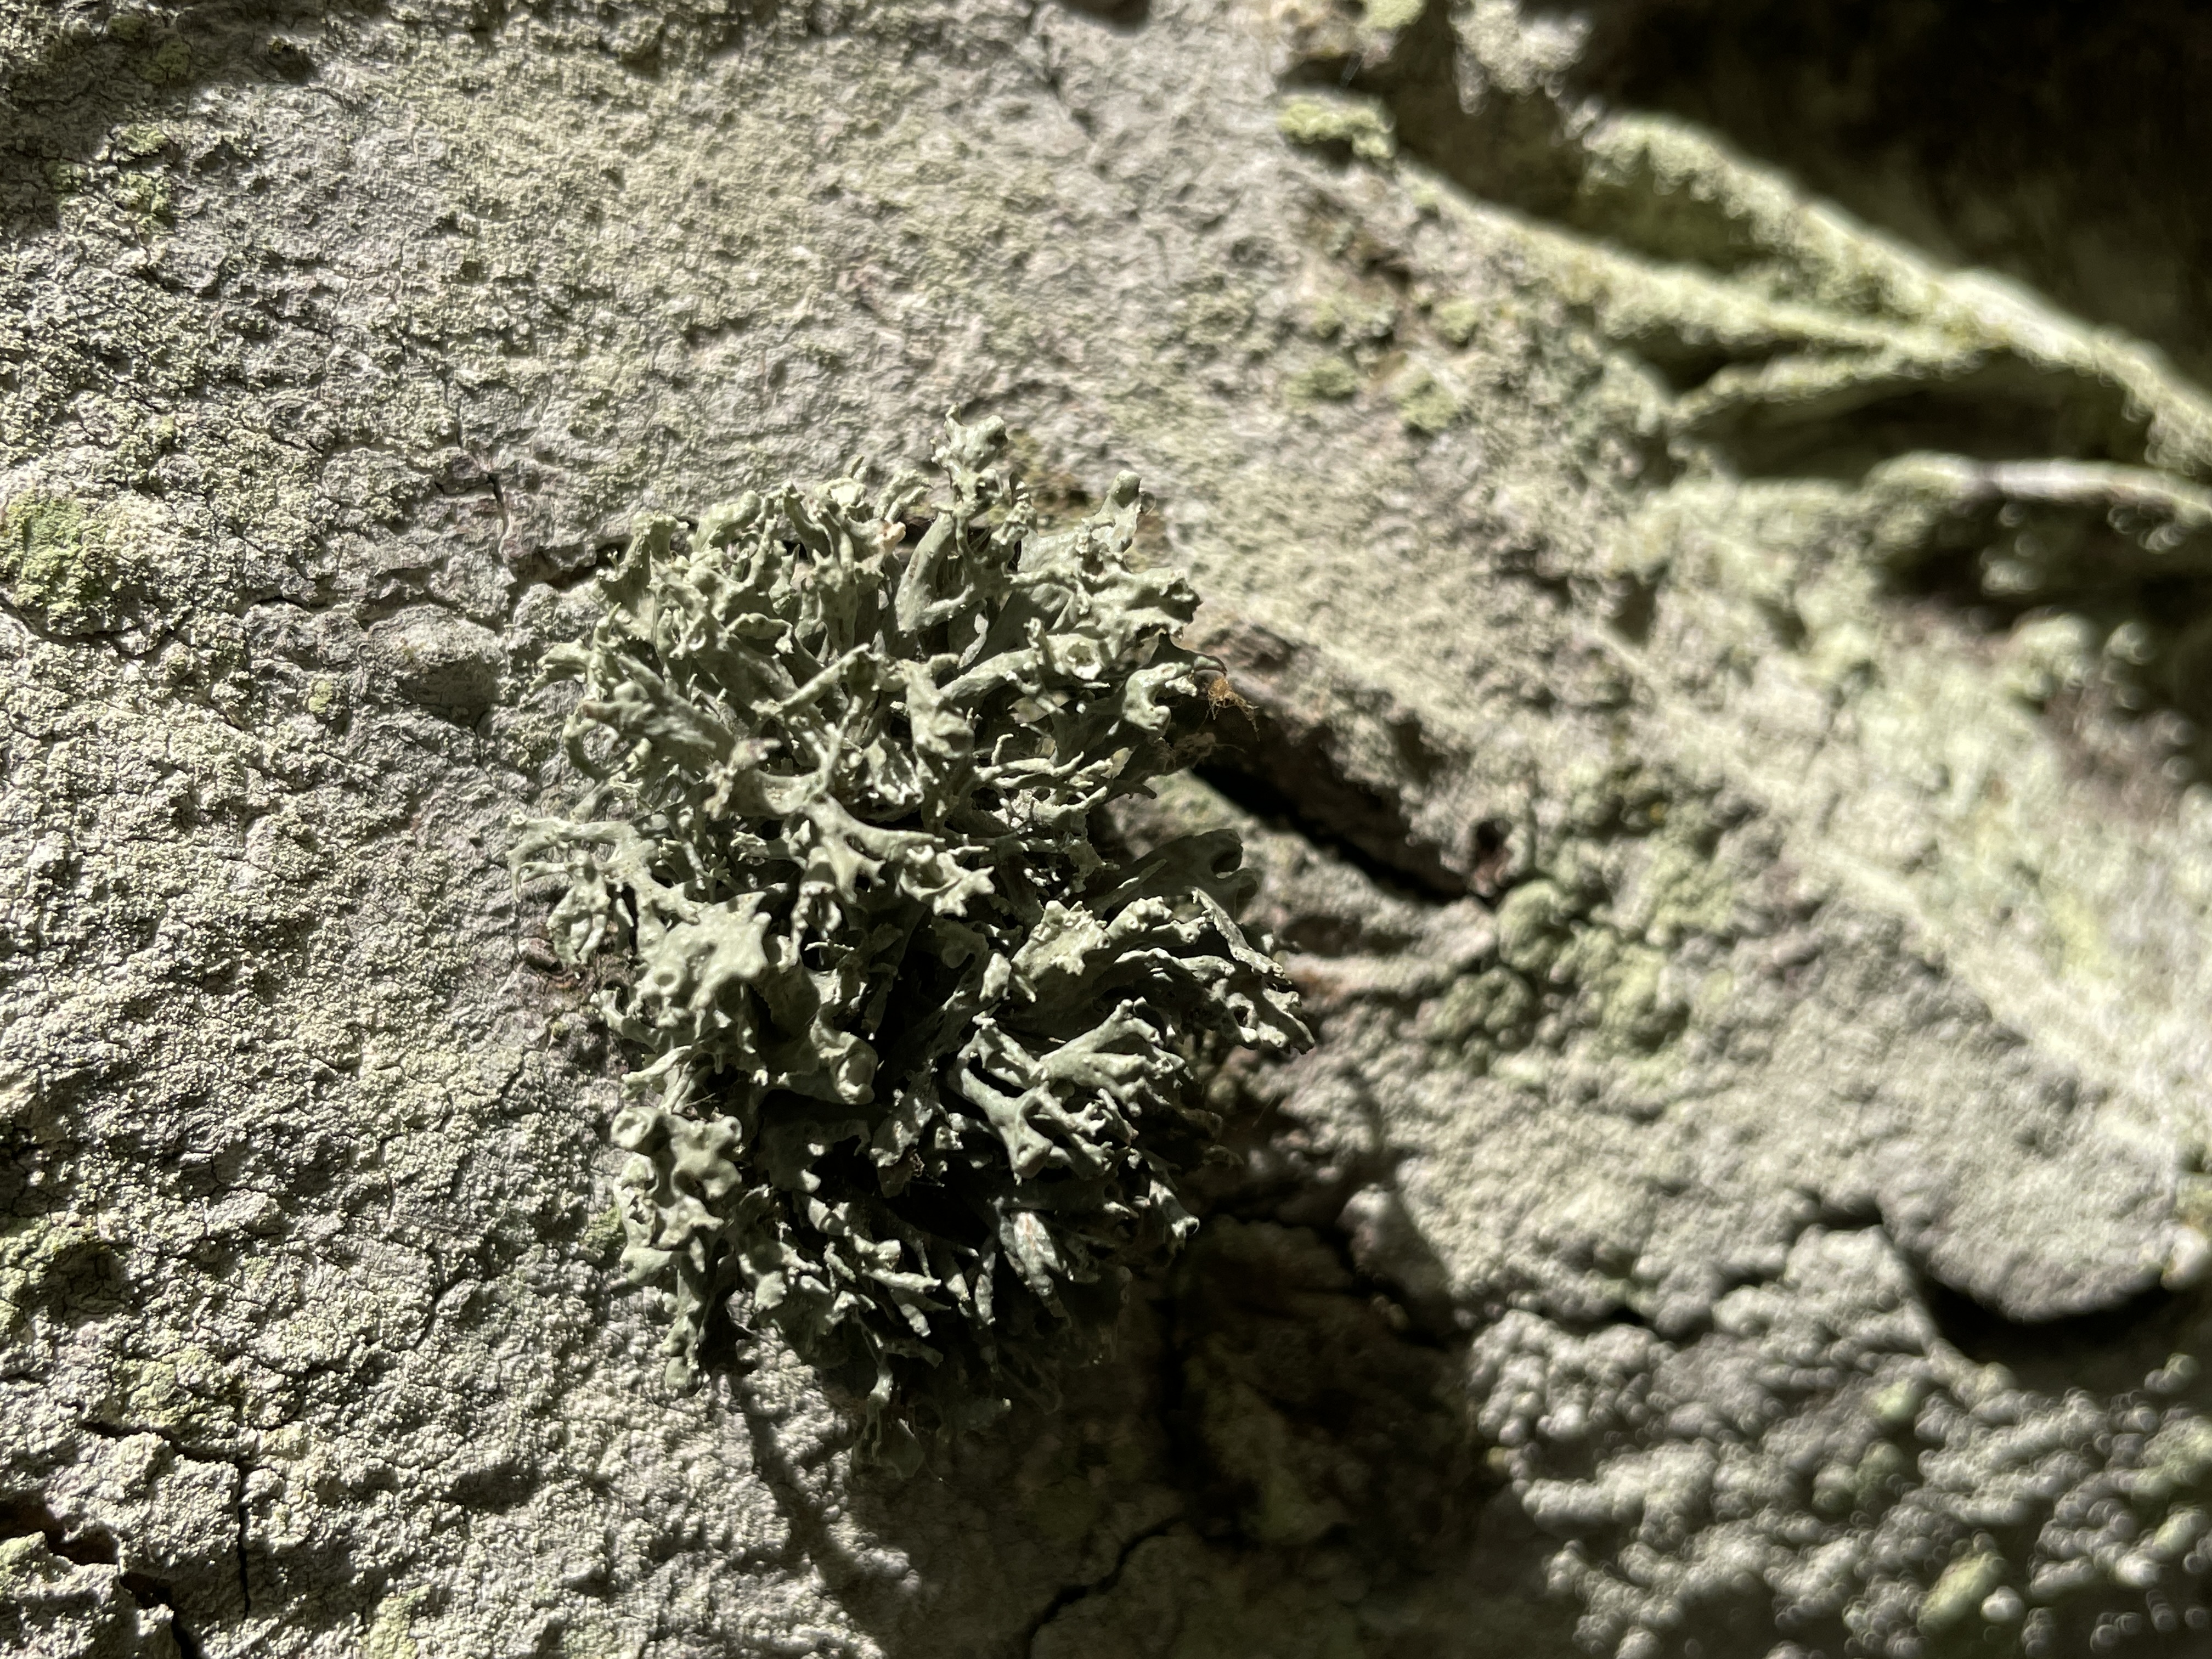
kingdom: Fungi
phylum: Ascomycota
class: Lecanoromycetes
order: Lecanorales
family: Ramalinaceae
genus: Ramalina
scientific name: Ramalina
